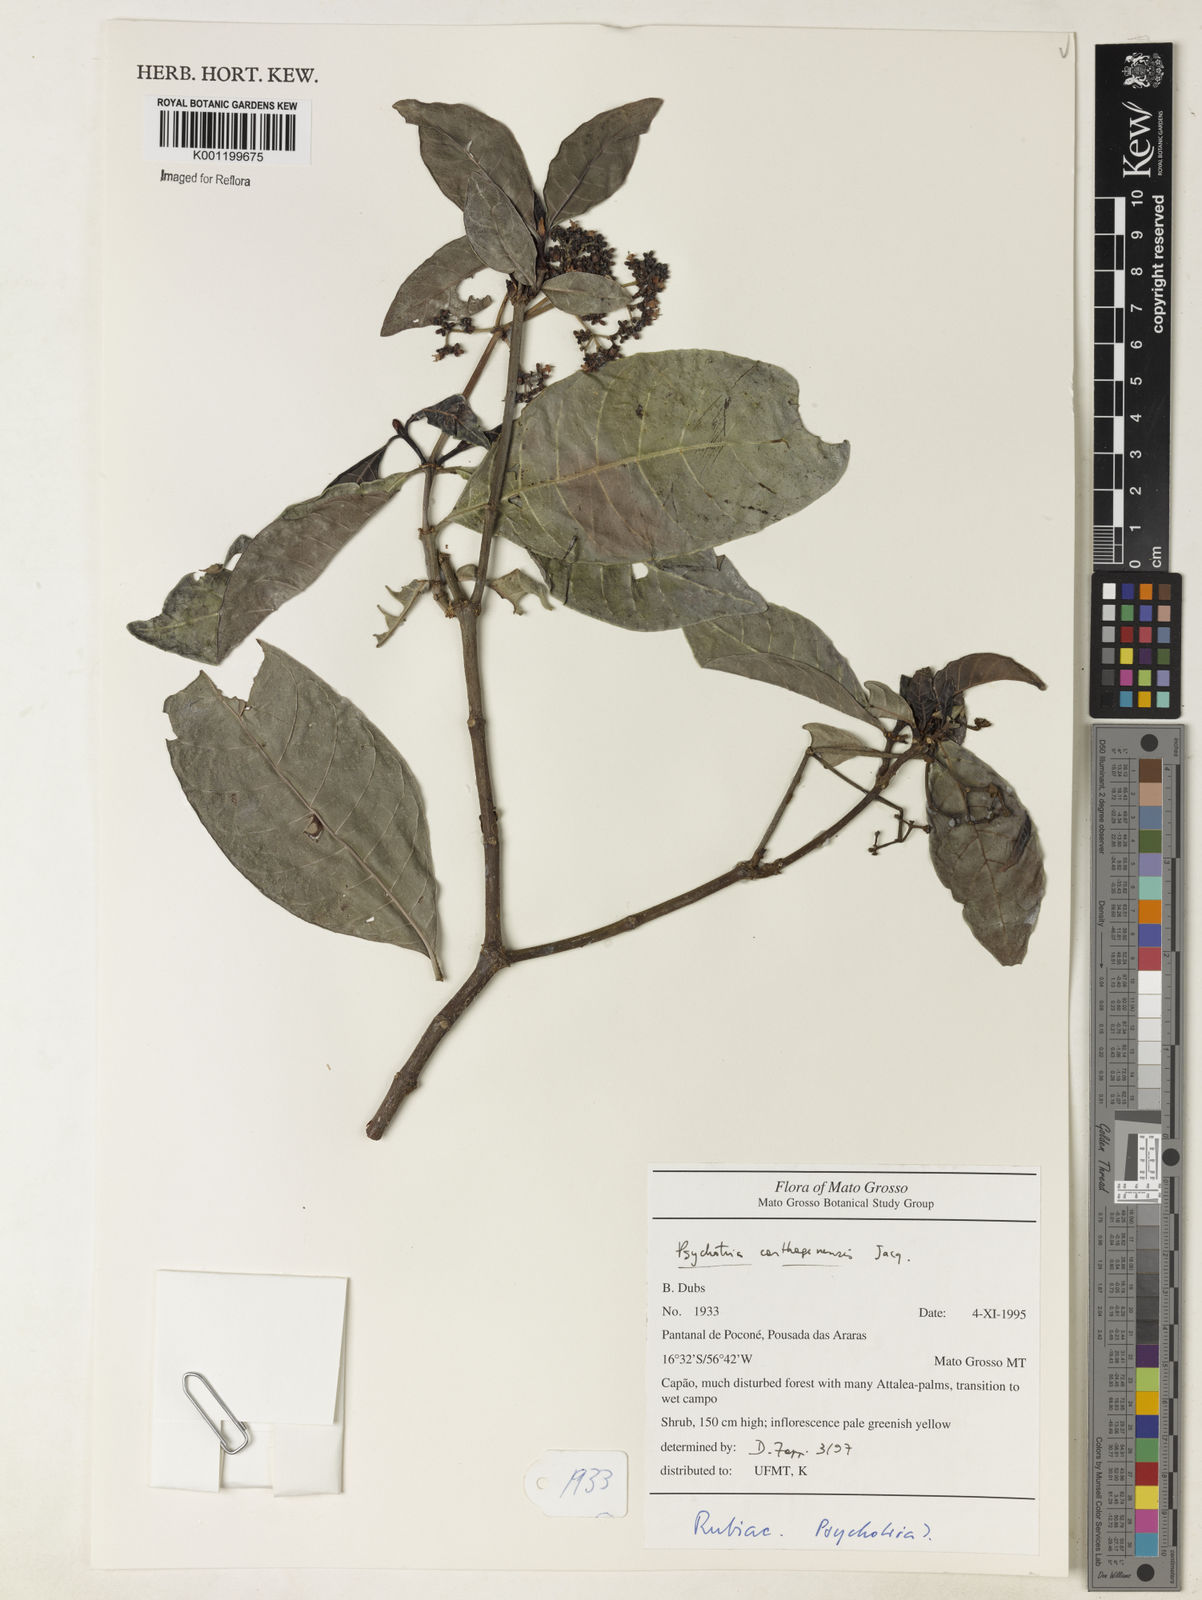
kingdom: Plantae
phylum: Tracheophyta
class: Magnoliopsida
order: Gentianales
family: Rubiaceae
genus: Psychotria
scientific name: Psychotria carthagenensis
